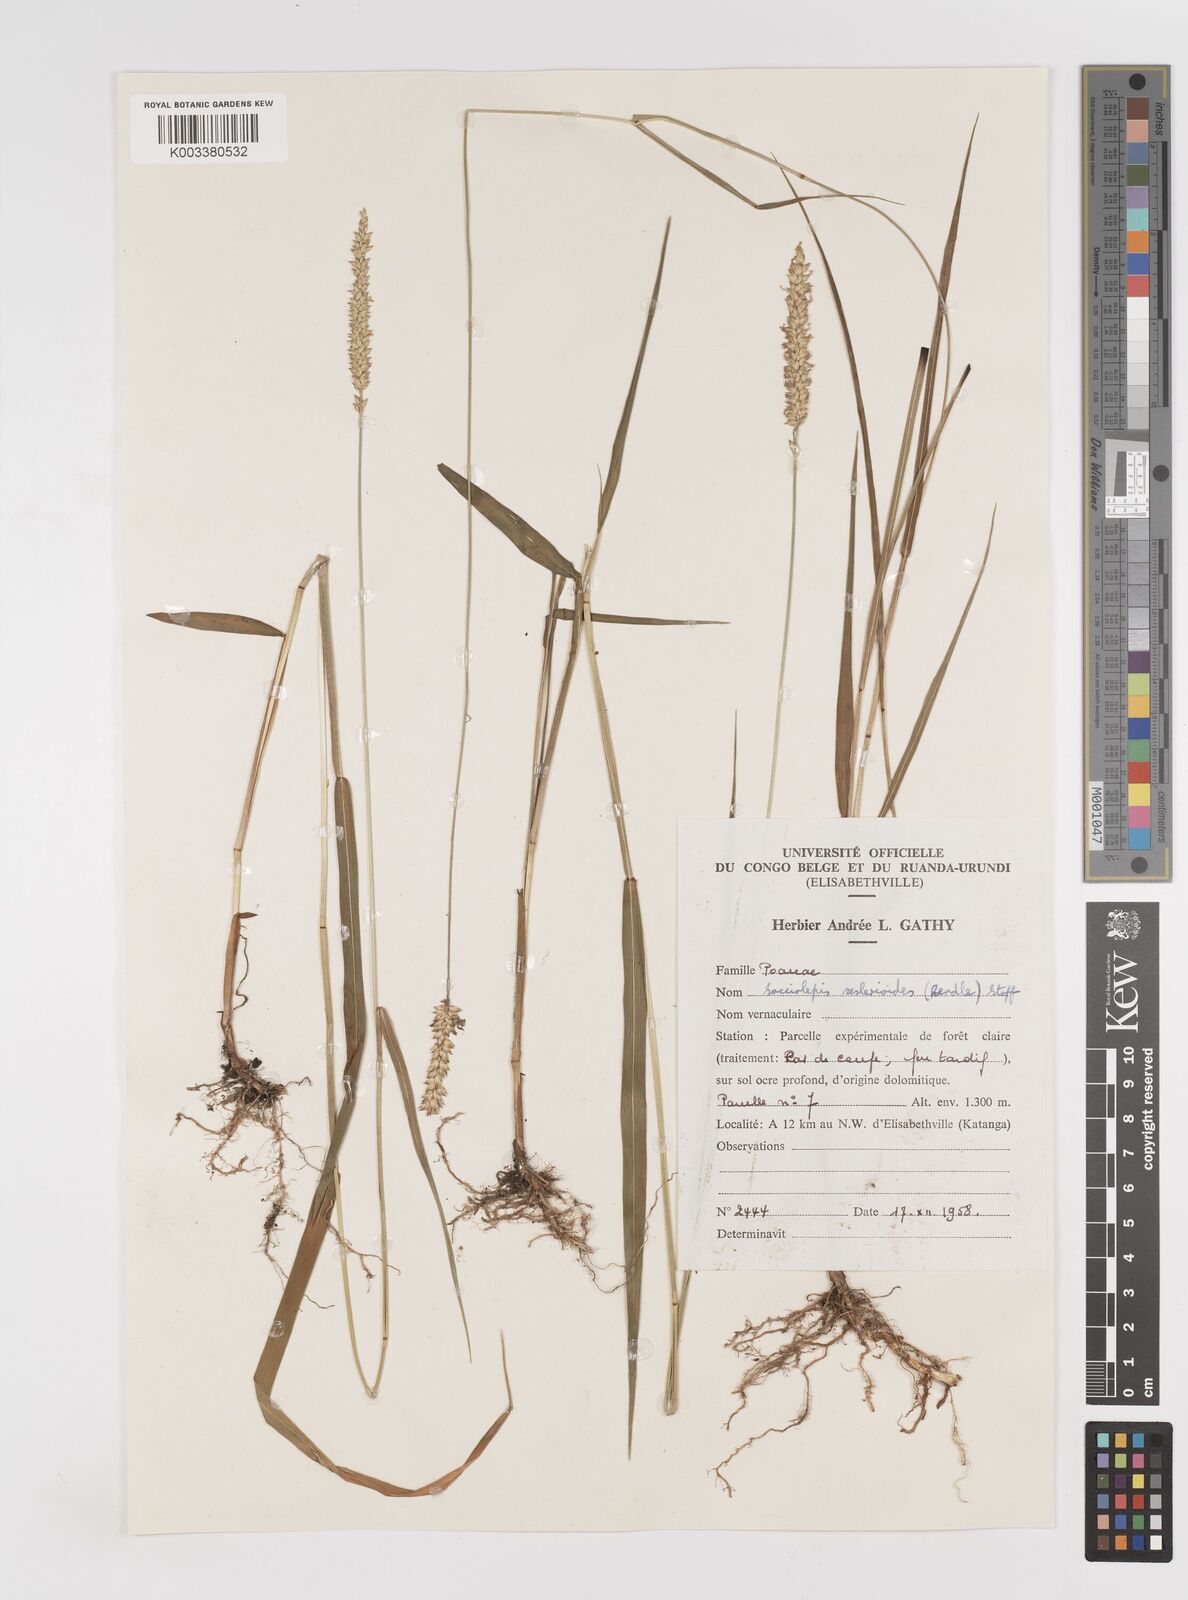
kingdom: Plantae
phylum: Tracheophyta
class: Liliopsida
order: Poales
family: Poaceae
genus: Sacciolepis
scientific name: Sacciolepis seslerioides
